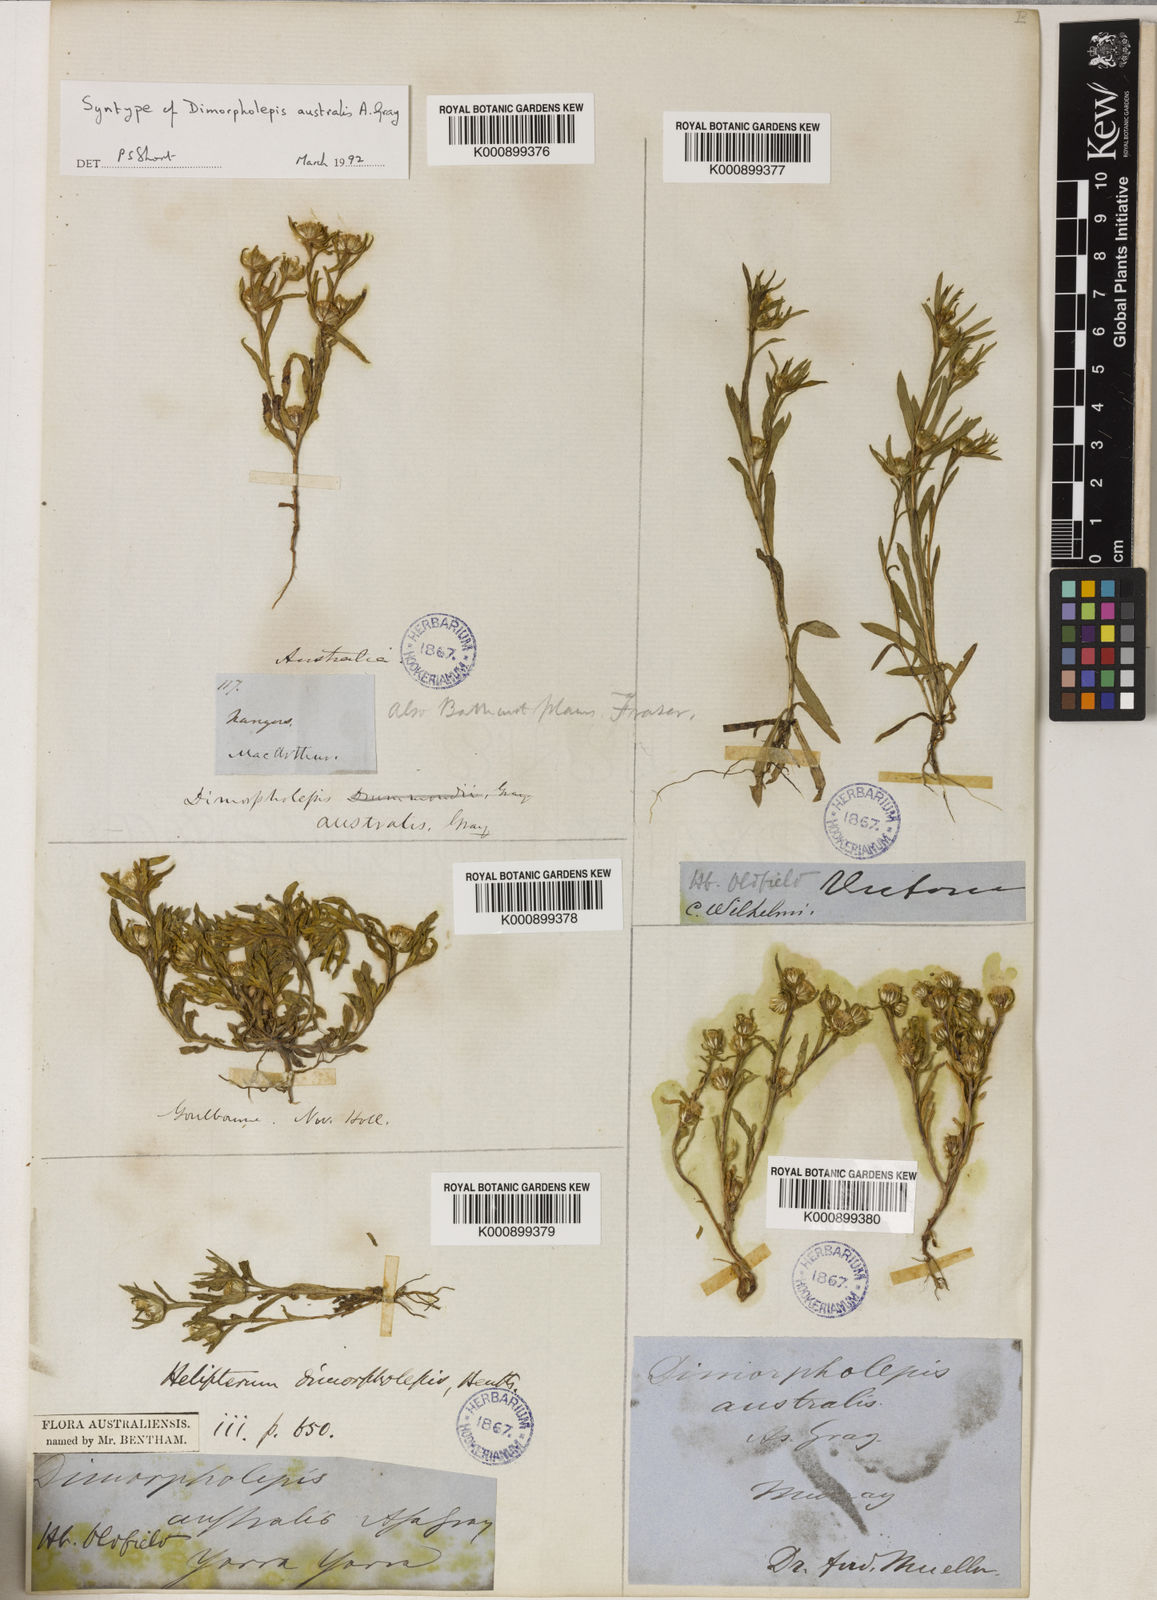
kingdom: Plantae
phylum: Tracheophyta
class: Magnoliopsida
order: Asterales
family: Asteraceae
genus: Triptilodiscus
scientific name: Triptilodiscus pygmaeus
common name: Common sunray
